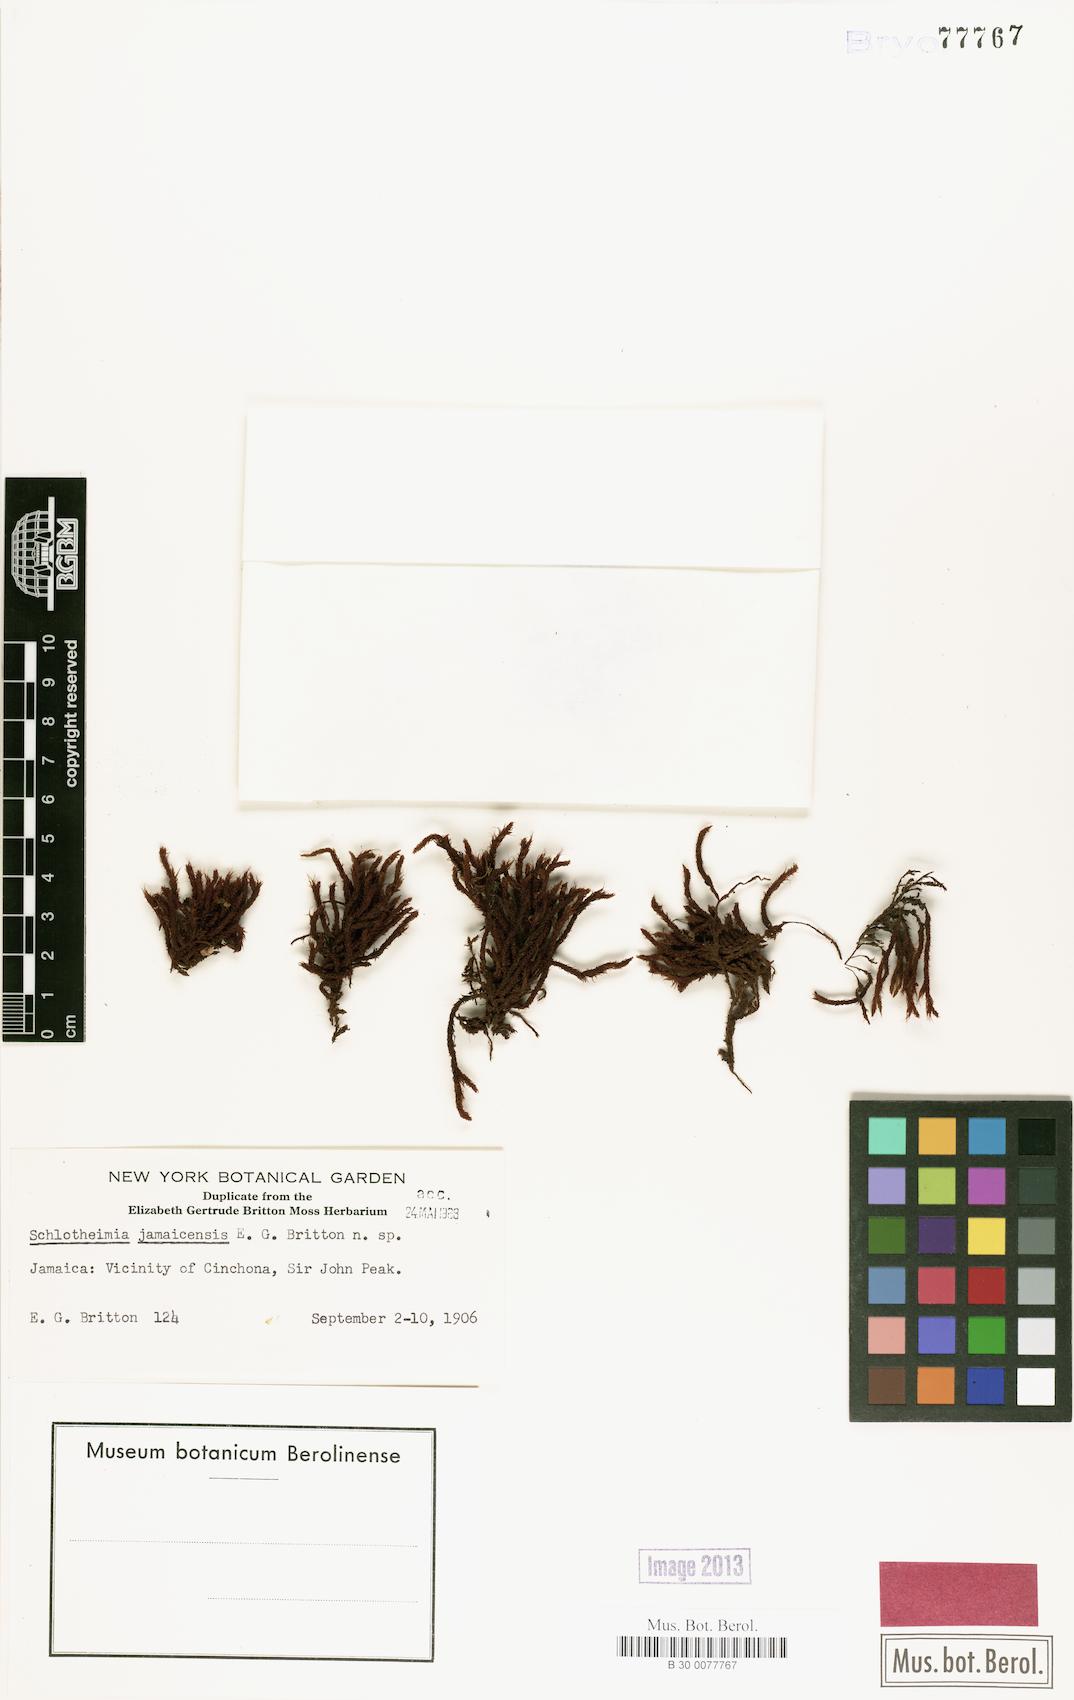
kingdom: Plantae
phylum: Bryophyta
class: Bryopsida
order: Orthotrichales
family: Orthotrichaceae
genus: Schlotheimia
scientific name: Schlotheimia
